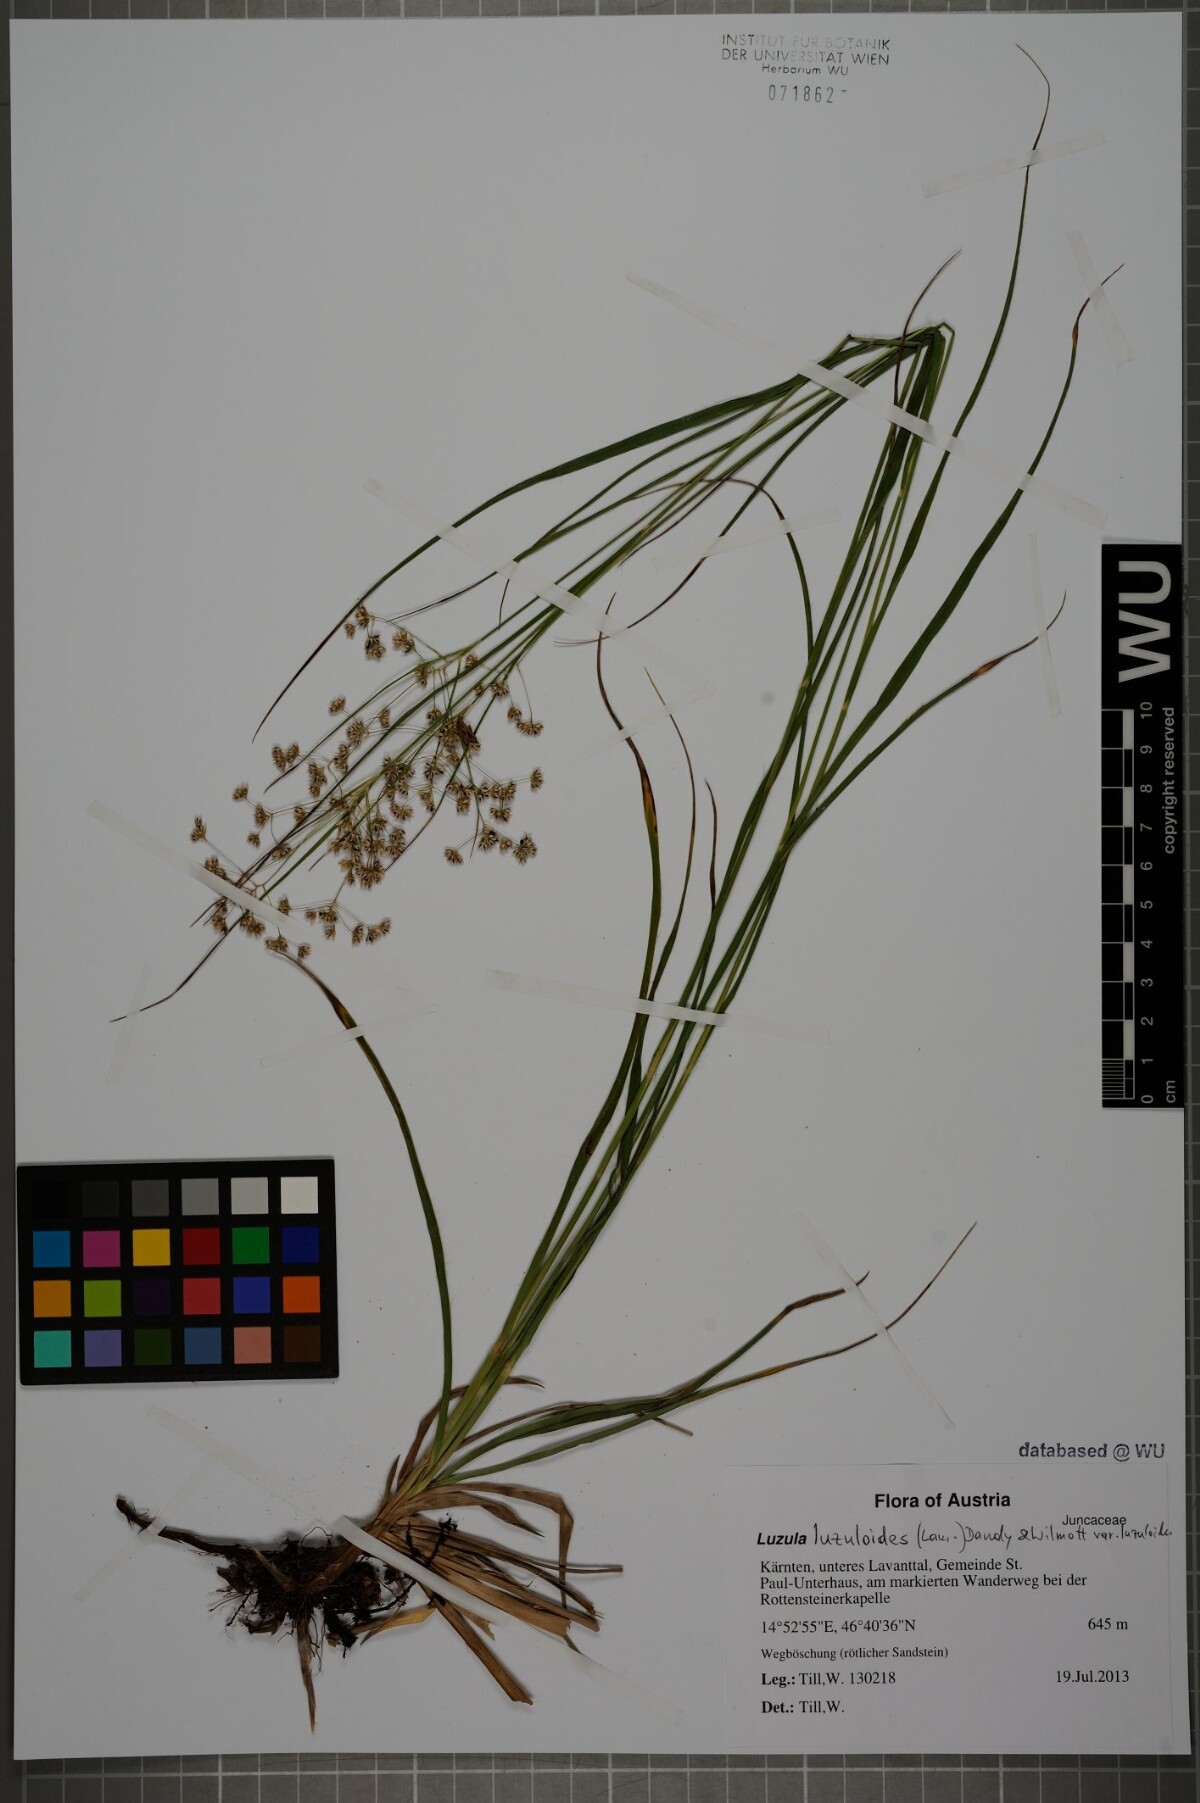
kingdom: Plantae
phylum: Tracheophyta
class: Liliopsida
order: Poales
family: Juncaceae
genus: Luzula
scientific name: Luzula luzuloides
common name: White wood-rush
